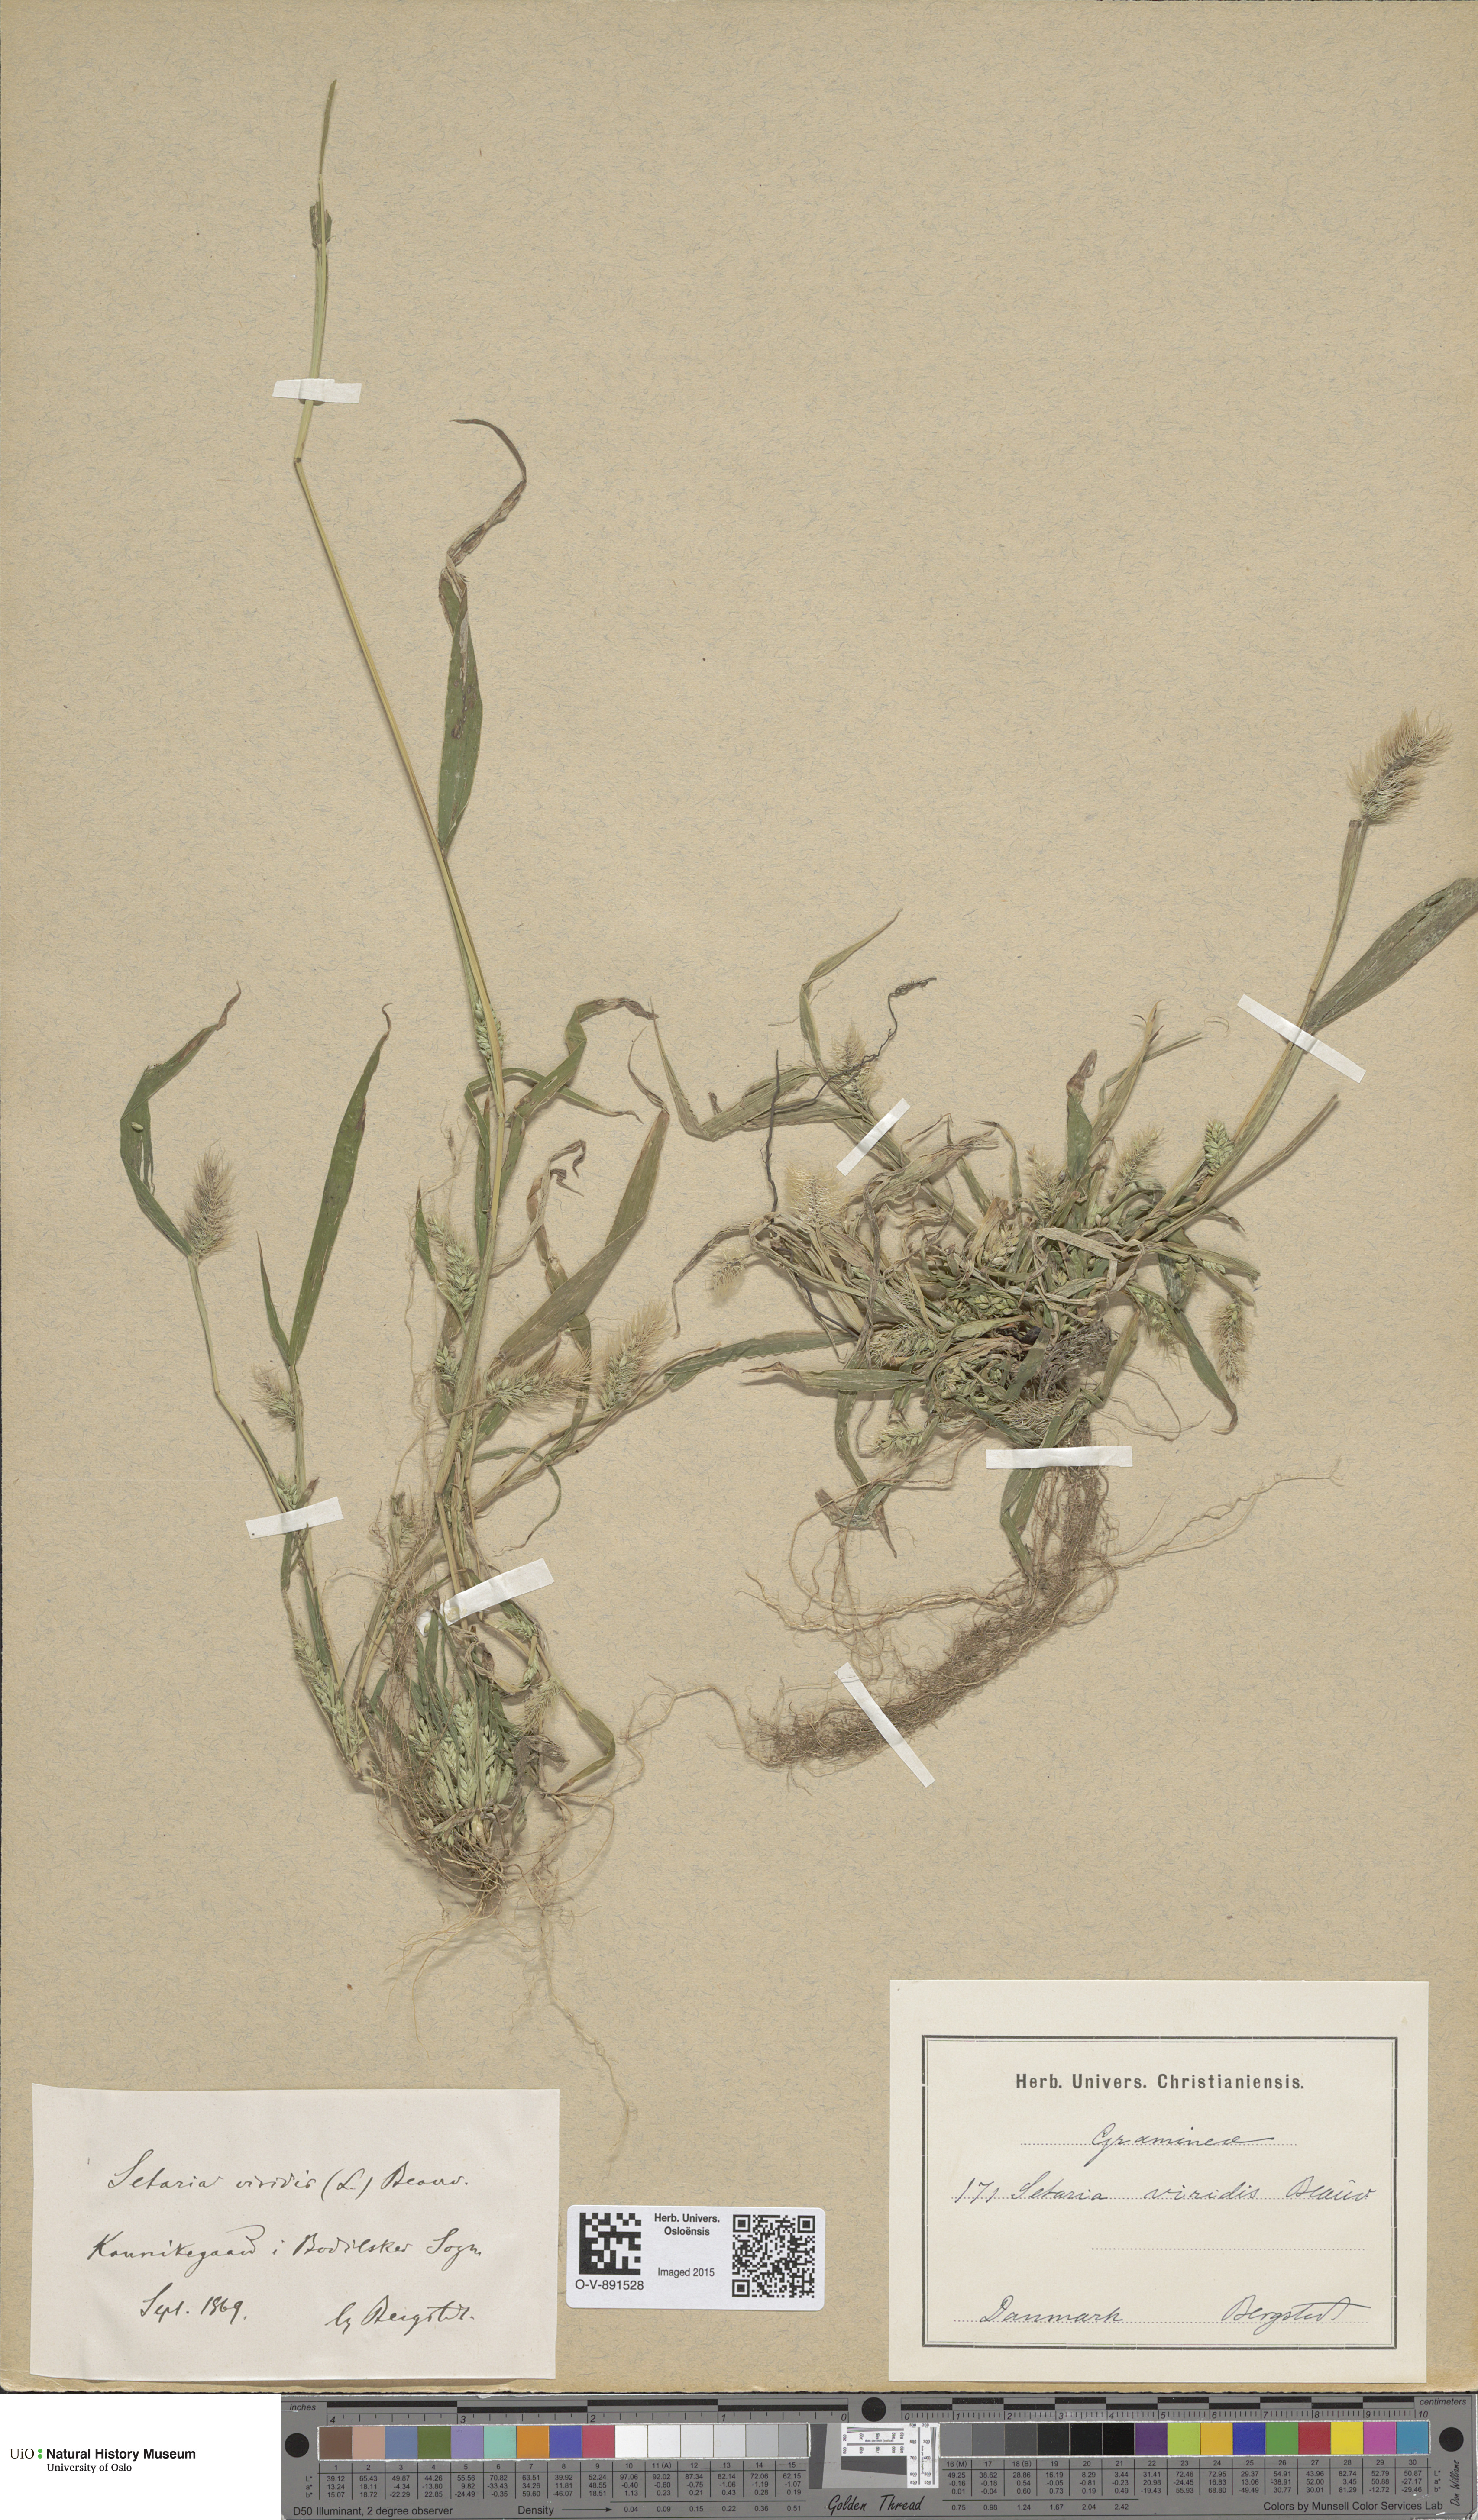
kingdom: Plantae
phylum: Tracheophyta
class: Liliopsida
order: Poales
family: Poaceae
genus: Setaria
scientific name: Setaria viridis
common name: Green bristlegrass
